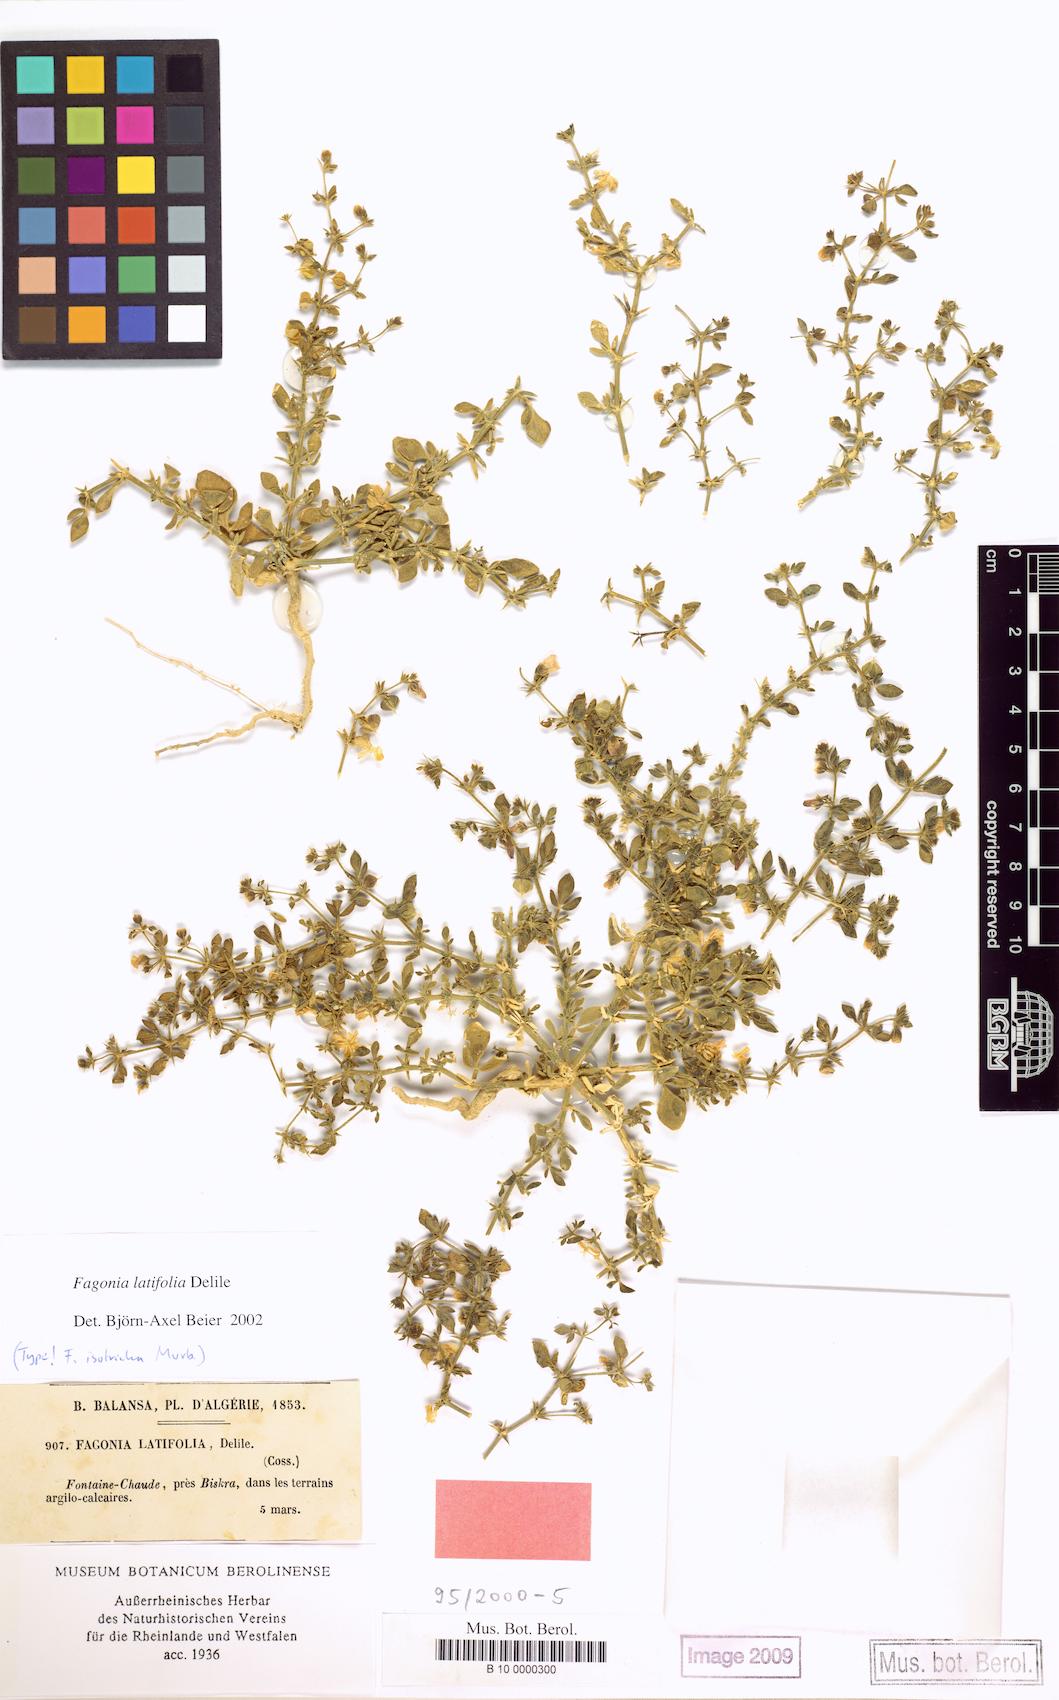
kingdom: Plantae
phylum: Tracheophyta
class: Magnoliopsida
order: Zygophyllales
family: Zygophyllaceae
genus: Fagonia
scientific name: Fagonia latifolia
